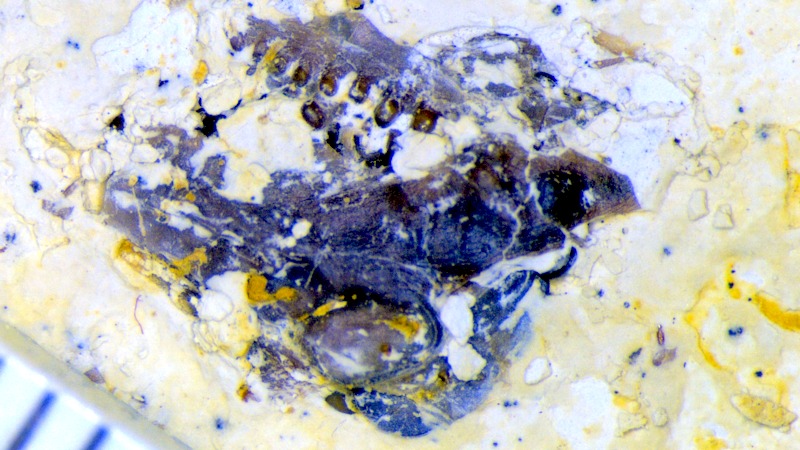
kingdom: Animalia
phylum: Chordata
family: Pycnodontes
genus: Macromesodon
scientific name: Macromesodon
